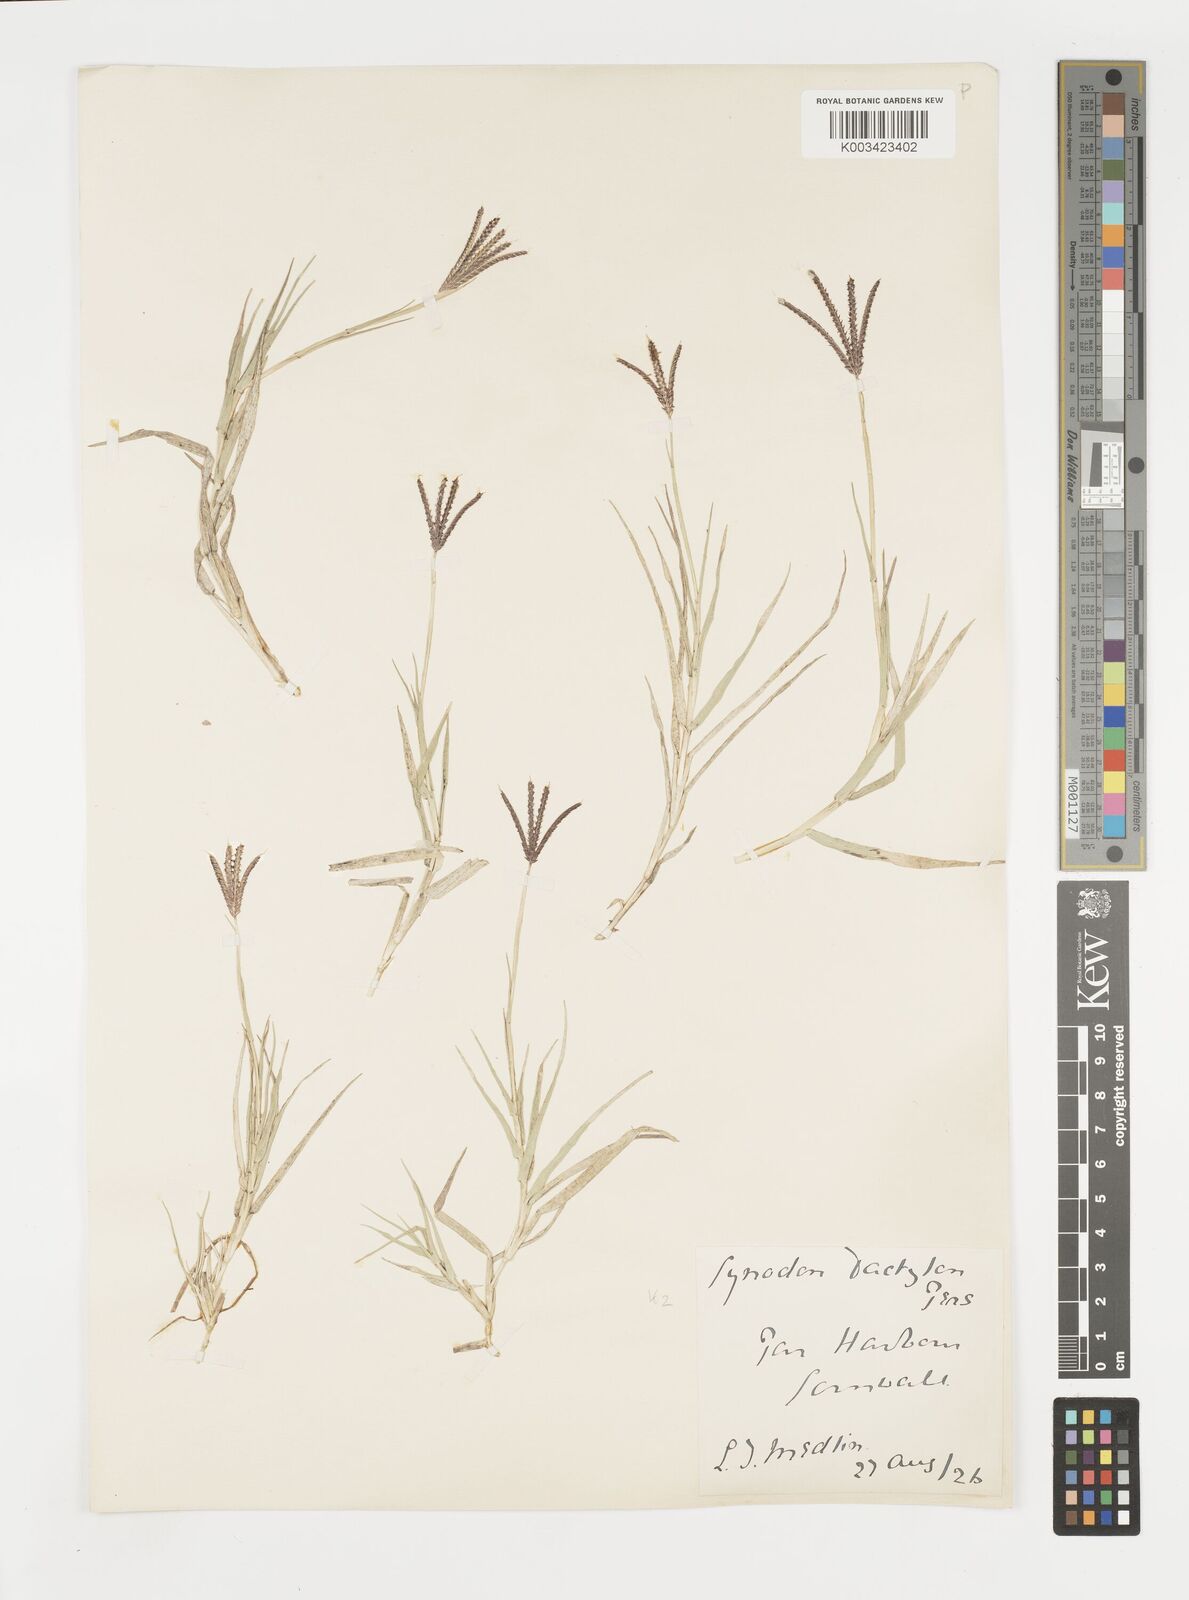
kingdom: Plantae
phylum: Tracheophyta
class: Liliopsida
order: Poales
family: Poaceae
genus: Cynodon
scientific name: Cynodon dactylon
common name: Bermuda grass
